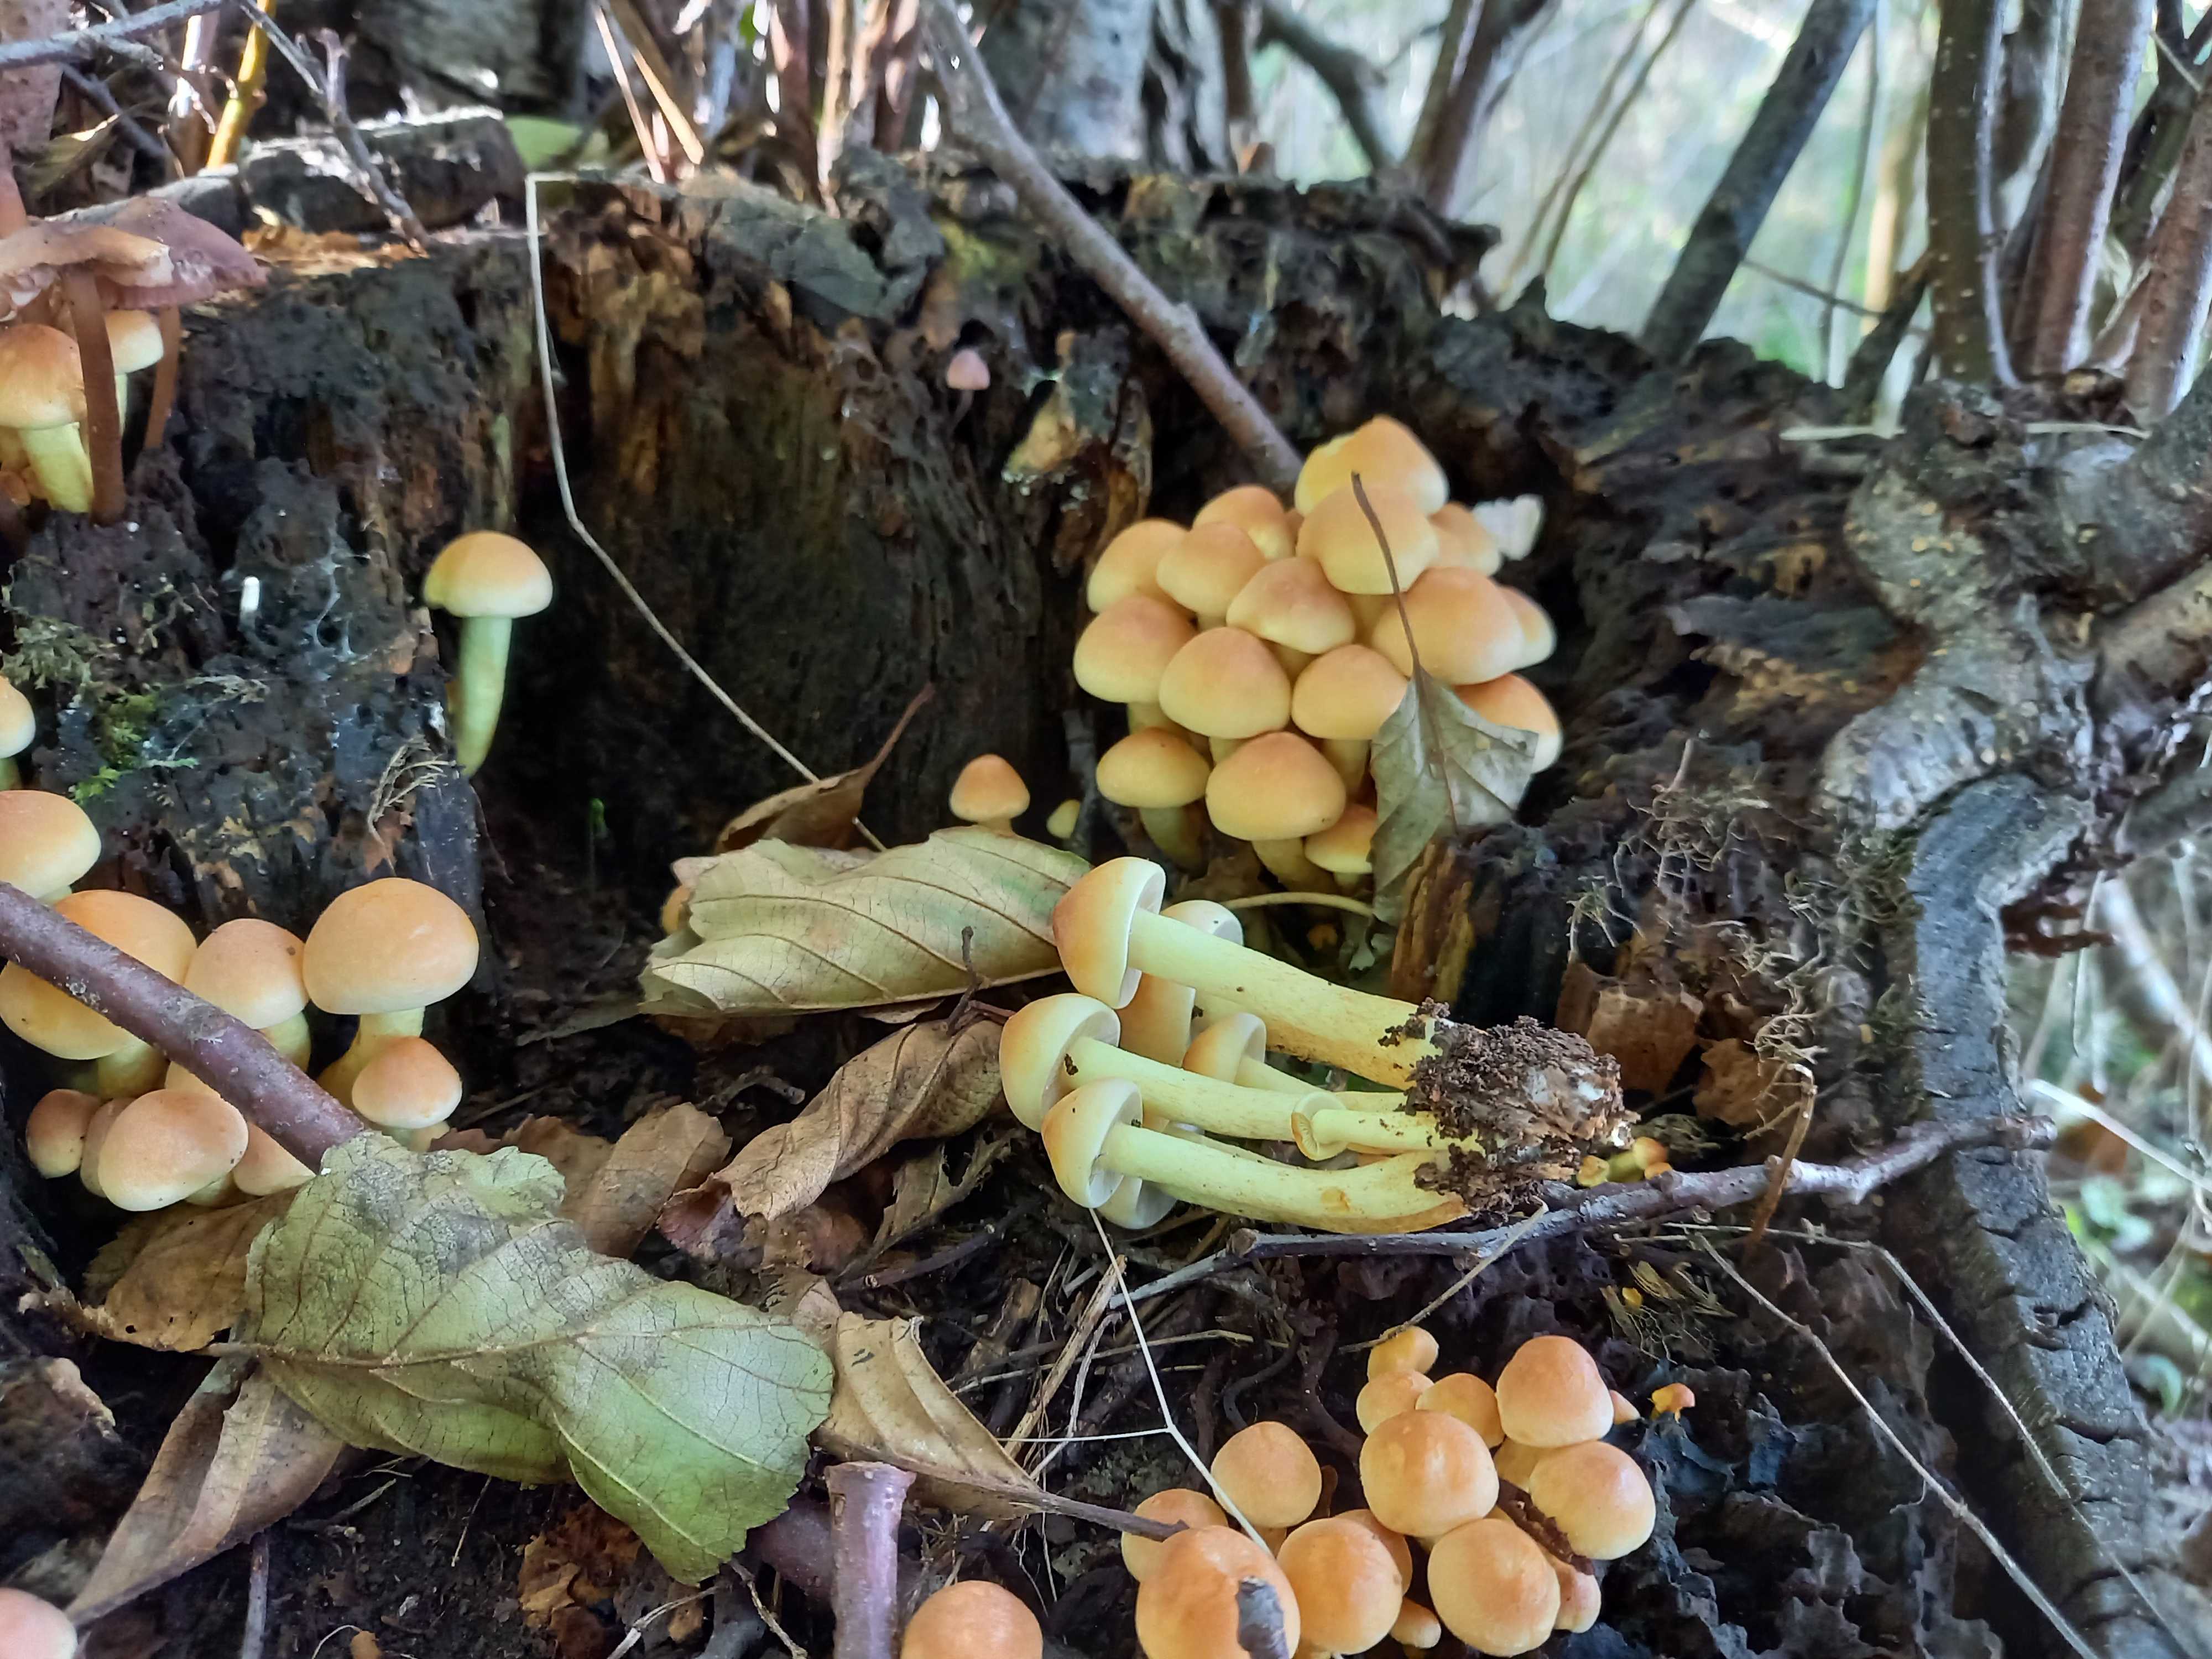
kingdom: Fungi
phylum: Basidiomycota
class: Agaricomycetes
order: Agaricales
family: Strophariaceae
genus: Hypholoma
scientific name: Hypholoma fasciculare
